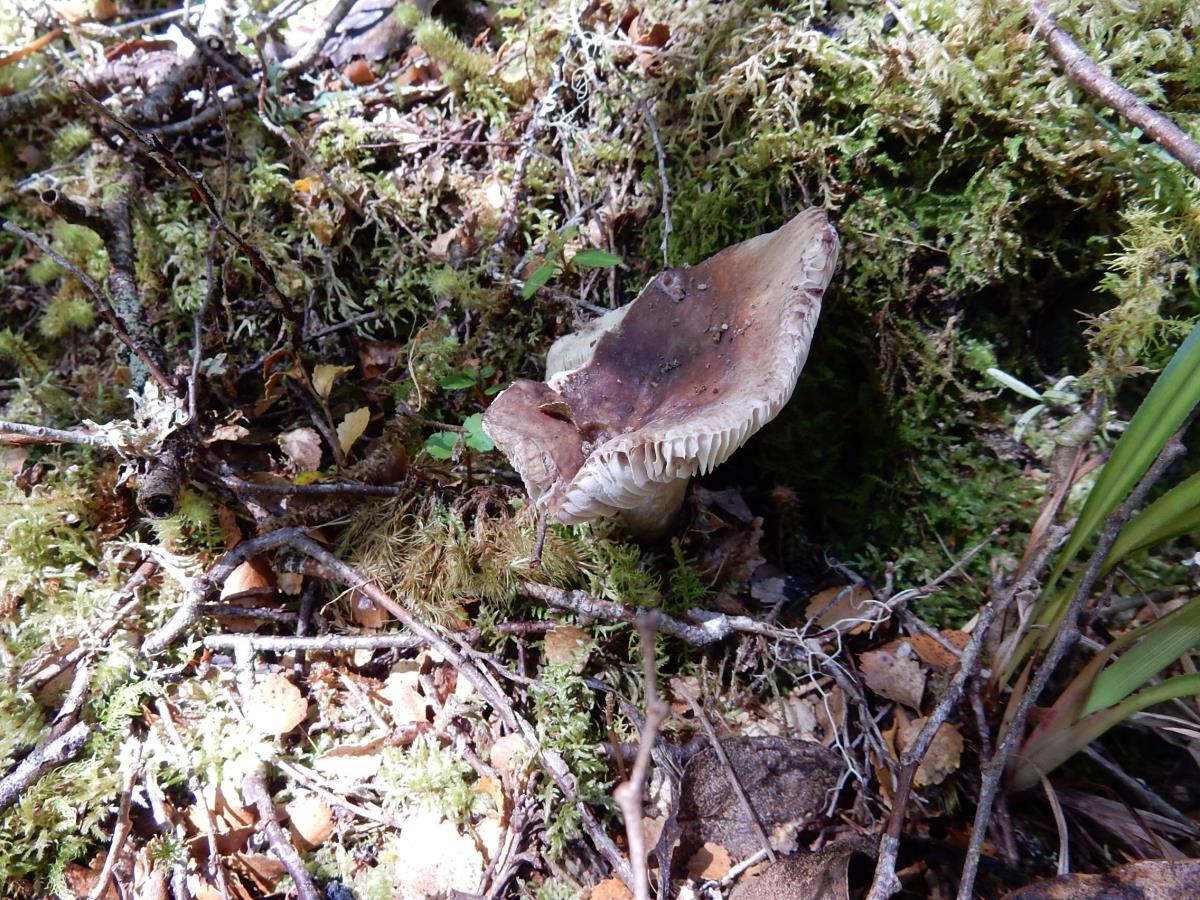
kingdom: Fungi
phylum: Basidiomycota
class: Agaricomycetes
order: Russulales
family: Russulaceae
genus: Russula
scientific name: Russula umerensis
